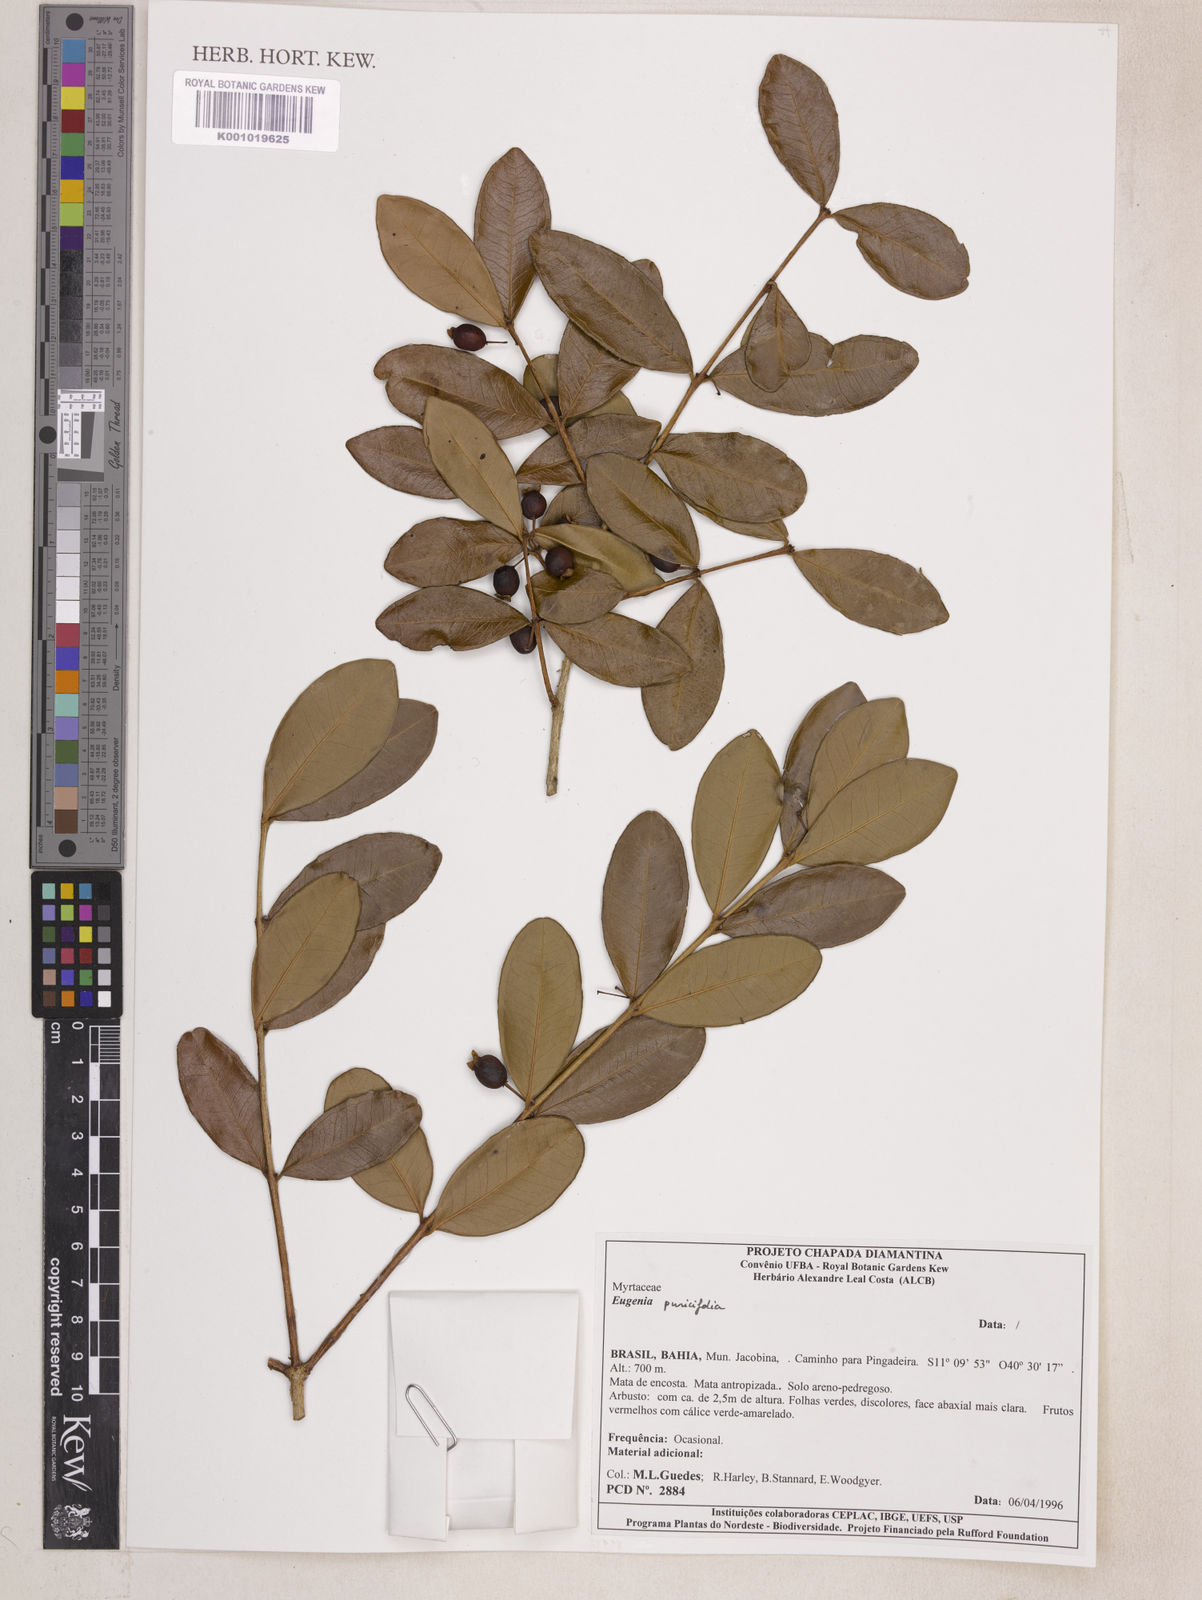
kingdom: Plantae
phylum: Tracheophyta
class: Magnoliopsida
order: Myrtales
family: Myrtaceae
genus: Eugenia
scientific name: Eugenia punicifolia
